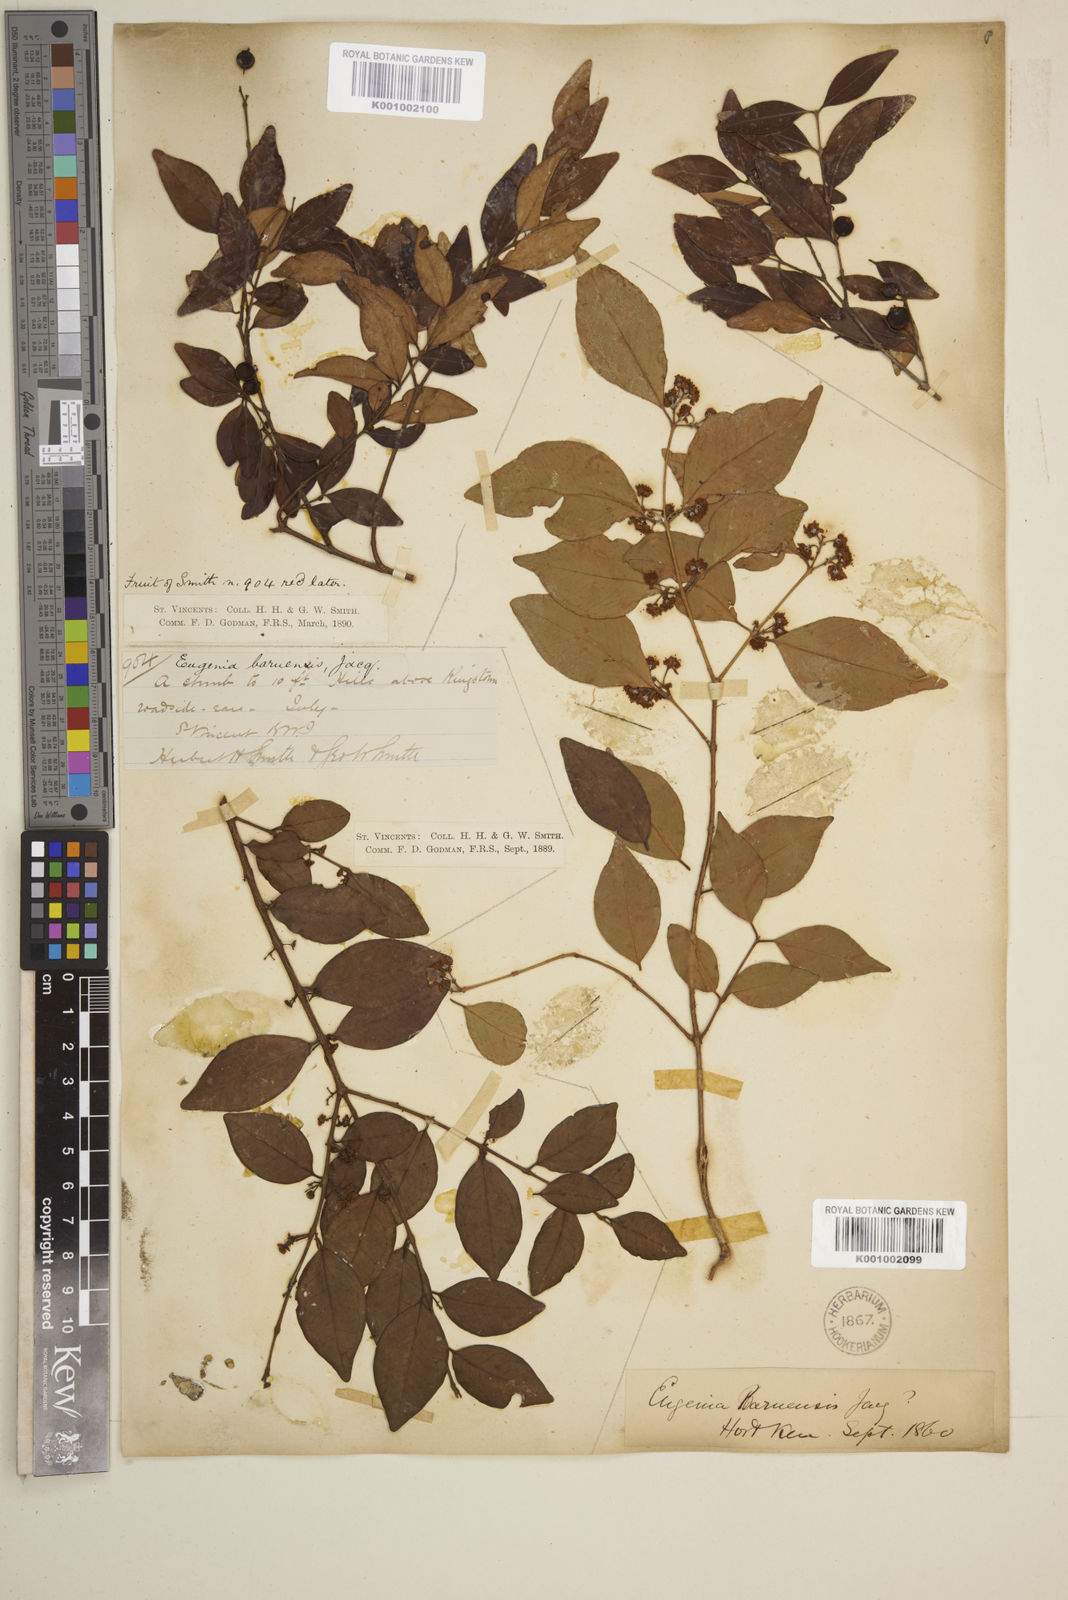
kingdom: Plantae
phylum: Tracheophyta
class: Magnoliopsida
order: Myrtales
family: Myrtaceae
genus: Eugenia
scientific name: Eugenia buxifolia
